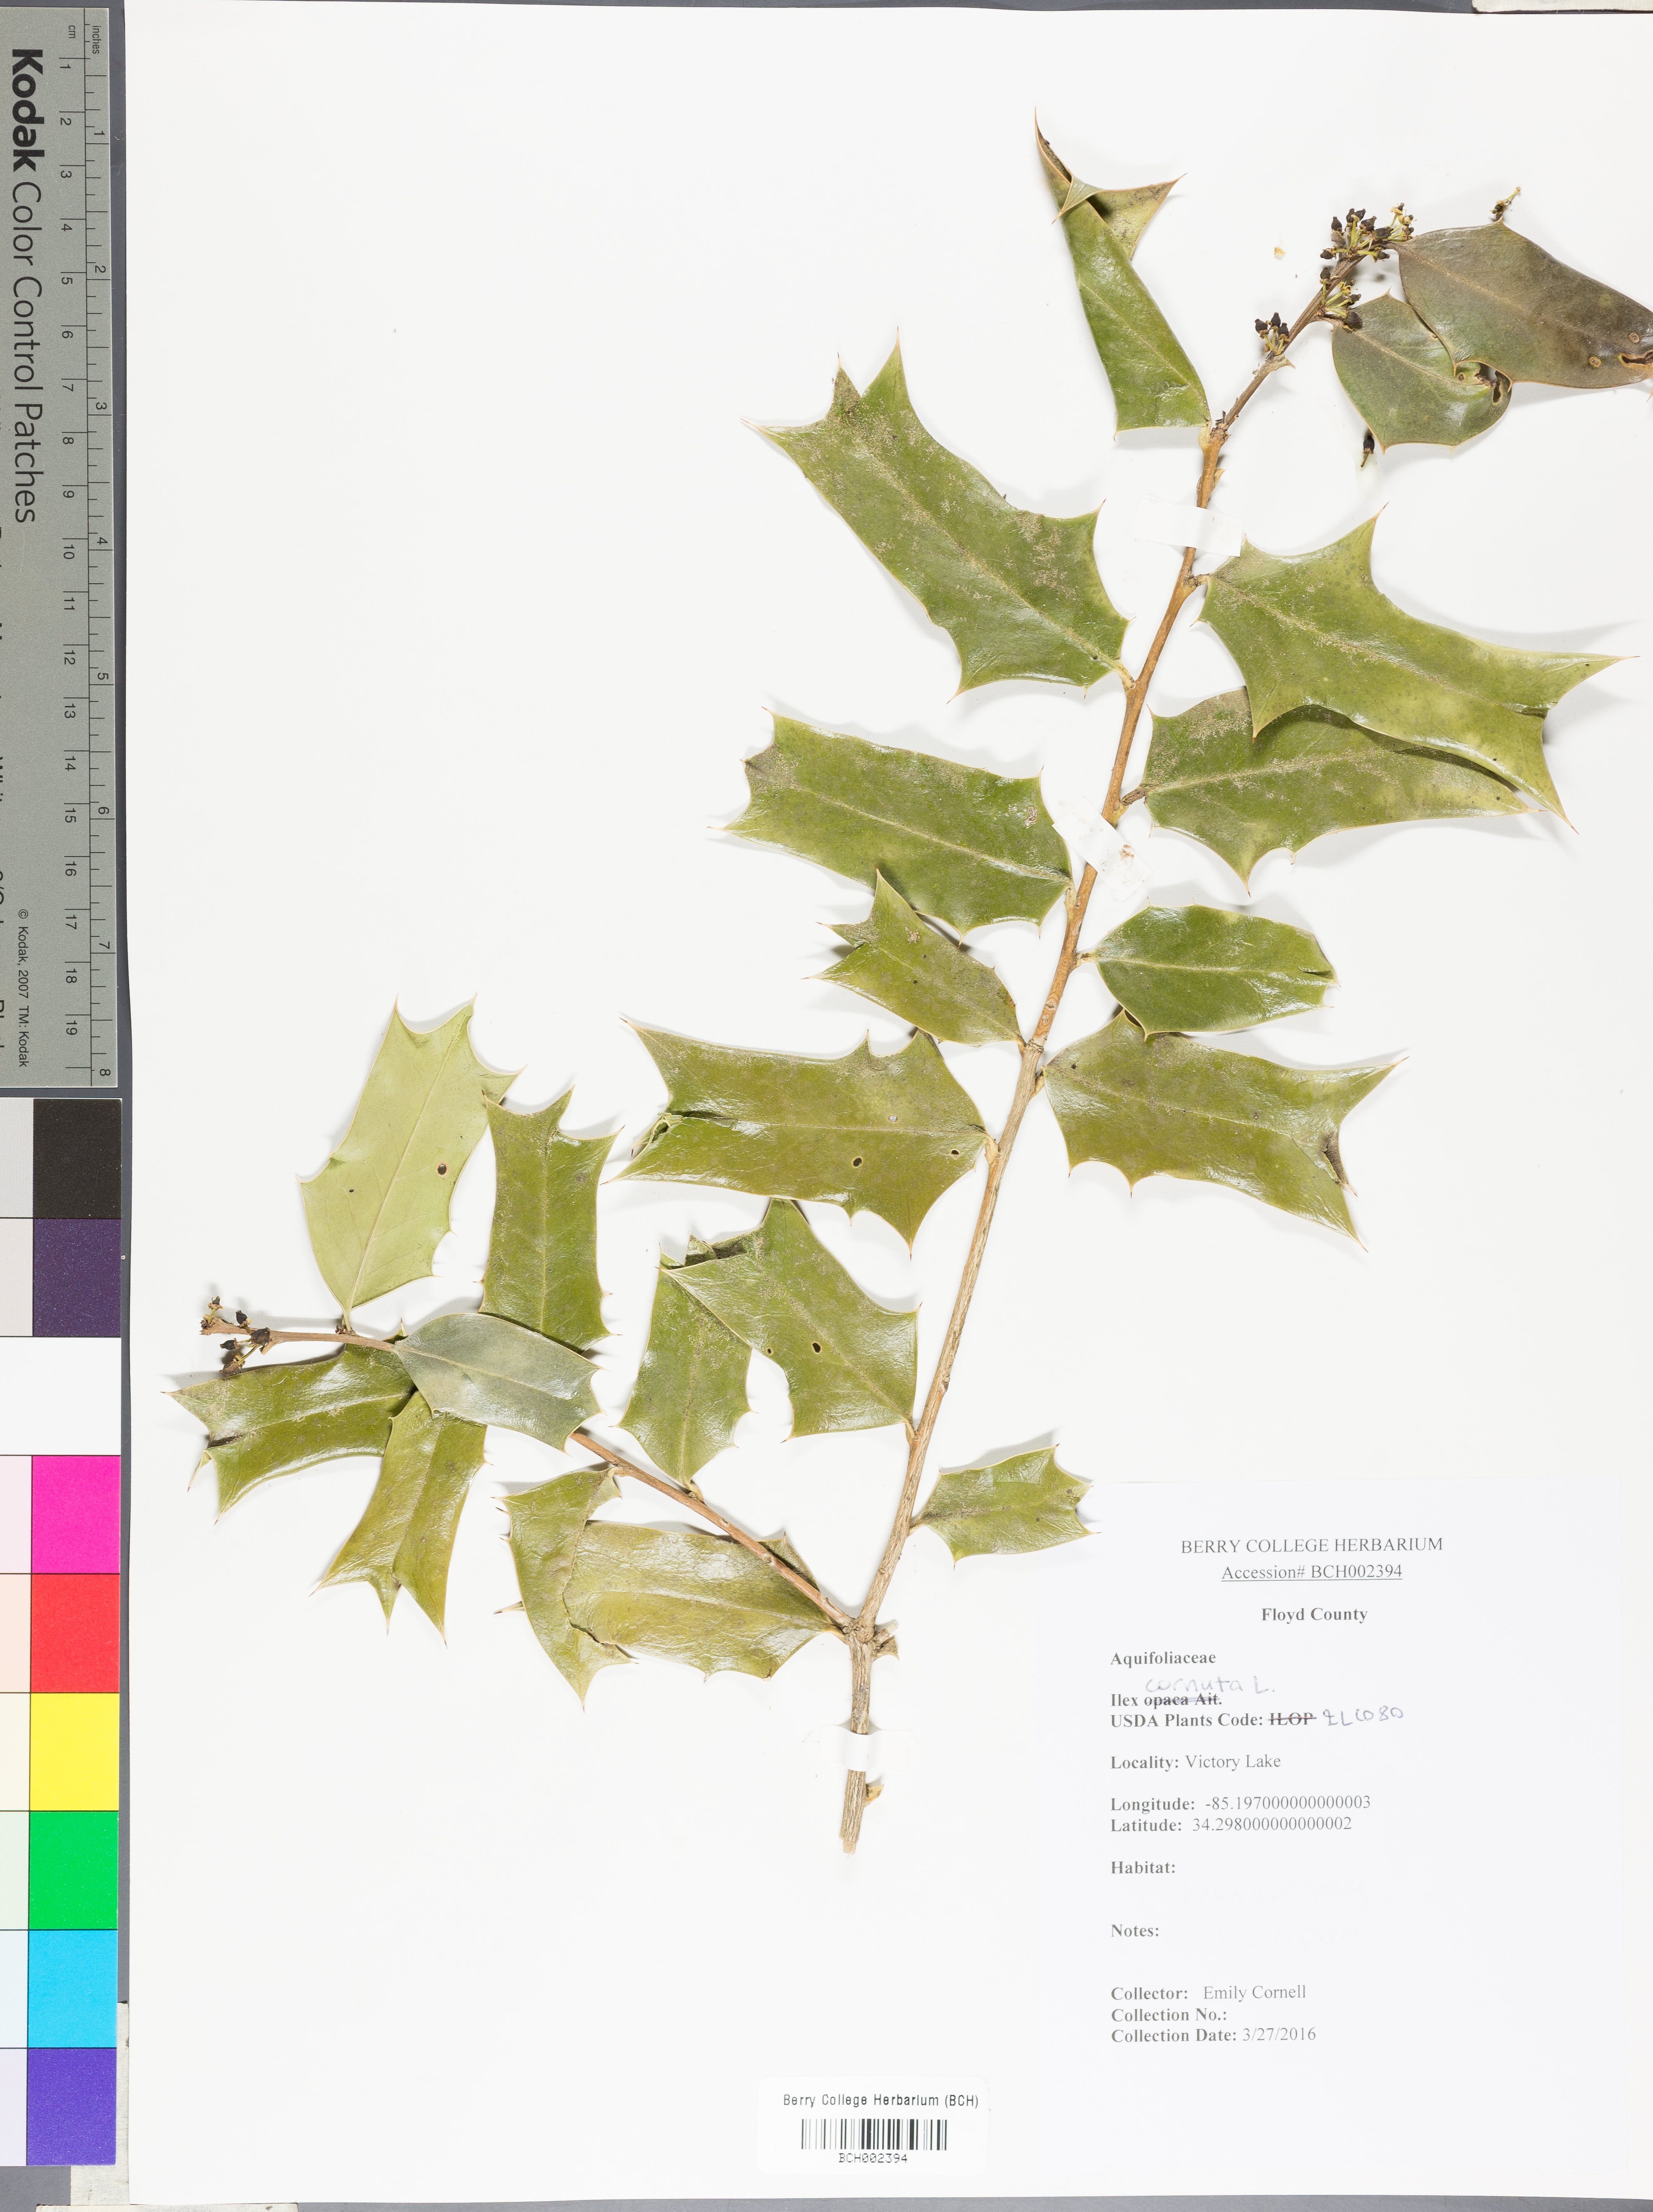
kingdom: Plantae
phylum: Tracheophyta
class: Magnoliopsida
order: Aquifoliales
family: Aquifoliaceae
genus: Ilex
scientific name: Ilex cornuta
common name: Chinese holly
